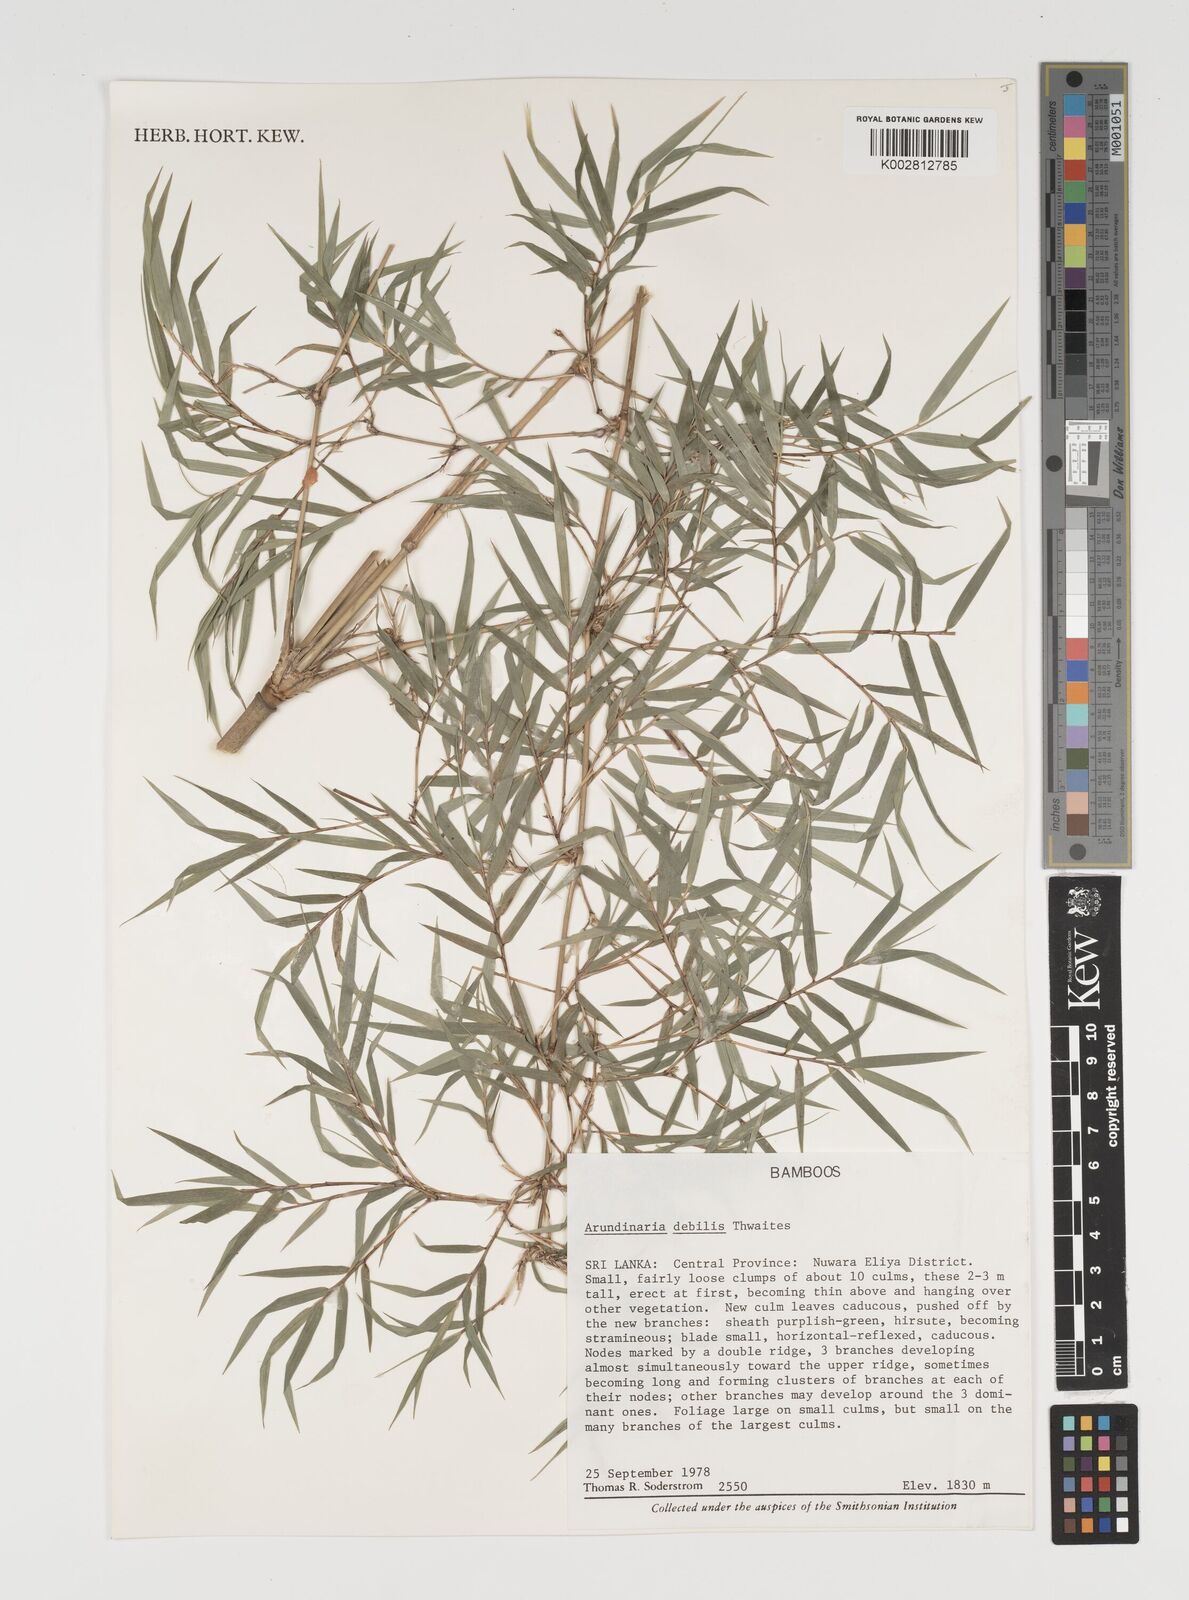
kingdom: Plantae
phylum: Tracheophyta
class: Liliopsida
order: Poales
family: Poaceae
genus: Kuruna
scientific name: Kuruna debilis
